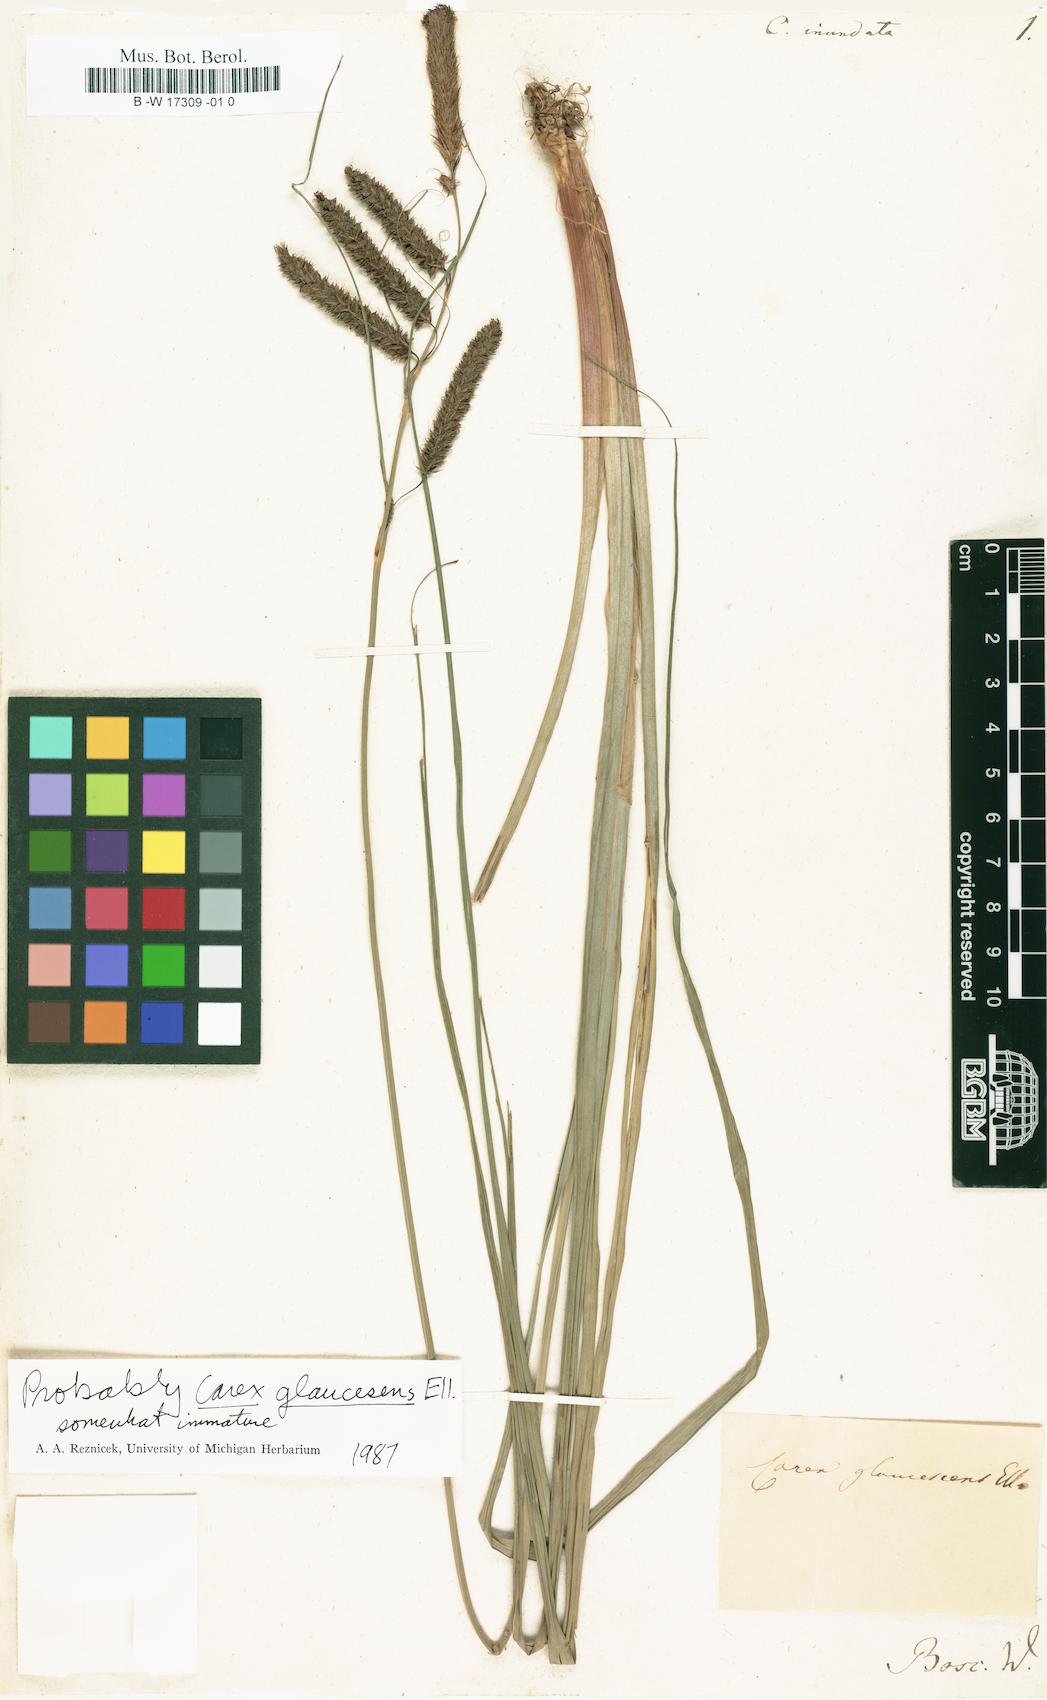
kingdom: Plantae
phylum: Tracheophyta
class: Liliopsida
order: Poales
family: Cyperaceae
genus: Carex
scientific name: Carex glaucescens
